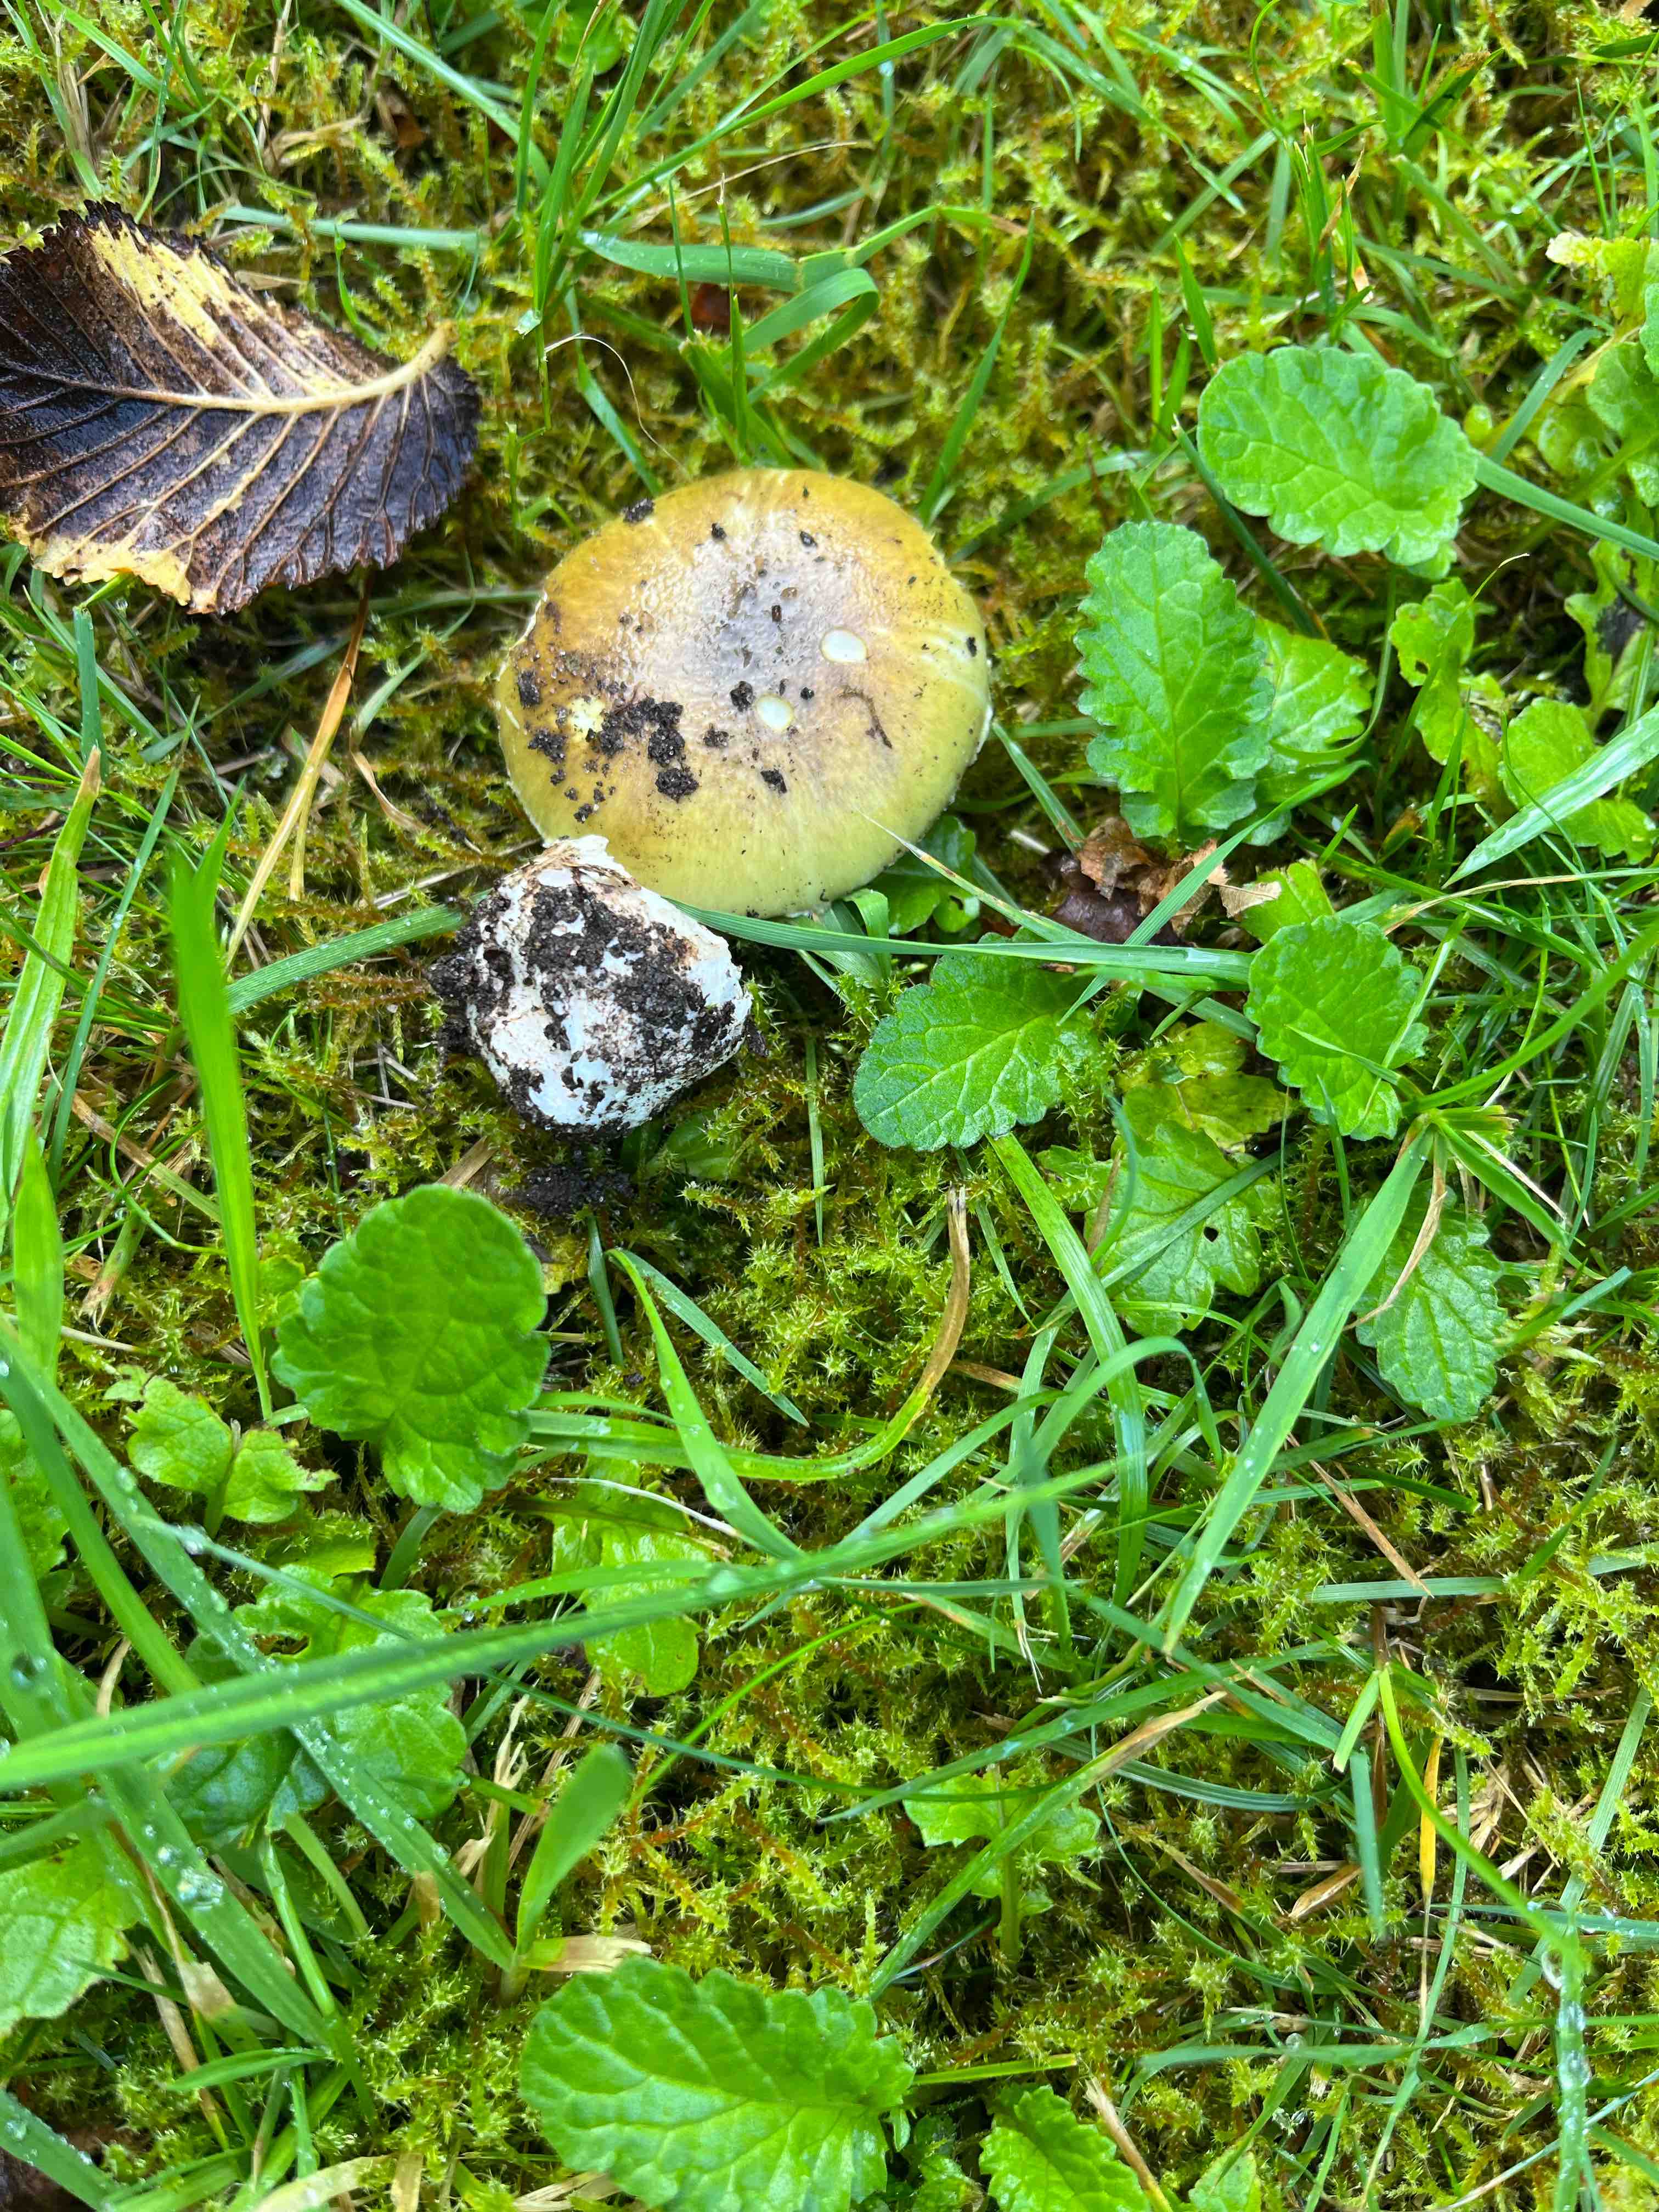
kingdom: Fungi
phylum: Basidiomycota
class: Agaricomycetes
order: Agaricales
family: Amanitaceae
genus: Amanita
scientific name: Amanita phalloides
